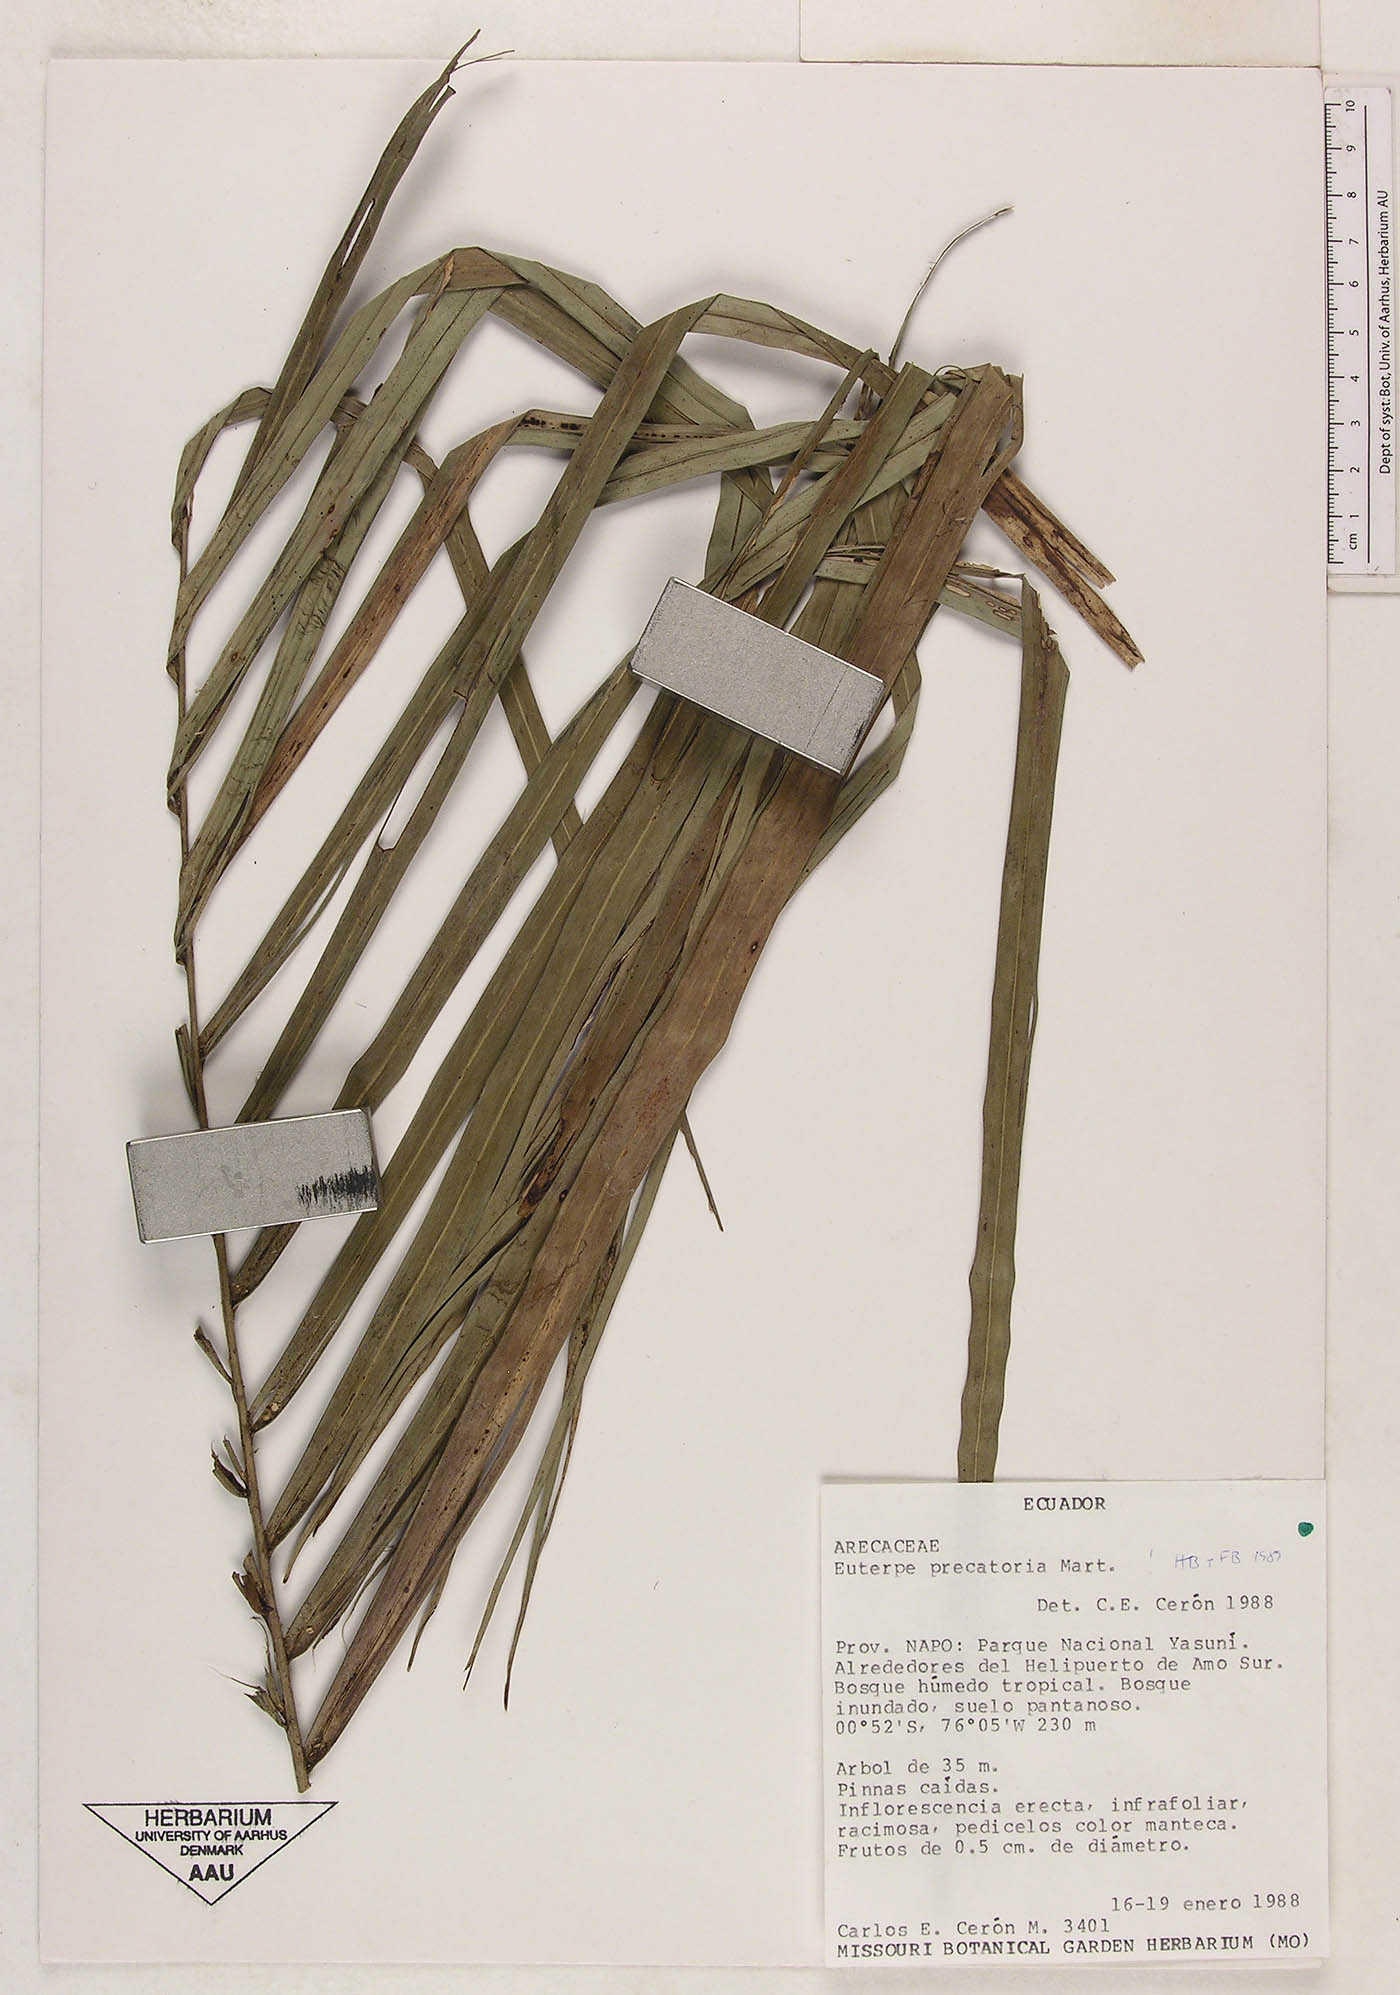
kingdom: Plantae
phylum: Tracheophyta
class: Liliopsida
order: Arecales
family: Arecaceae
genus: Euterpe
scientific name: Euterpe precatoria
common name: Mountain-cabbage
